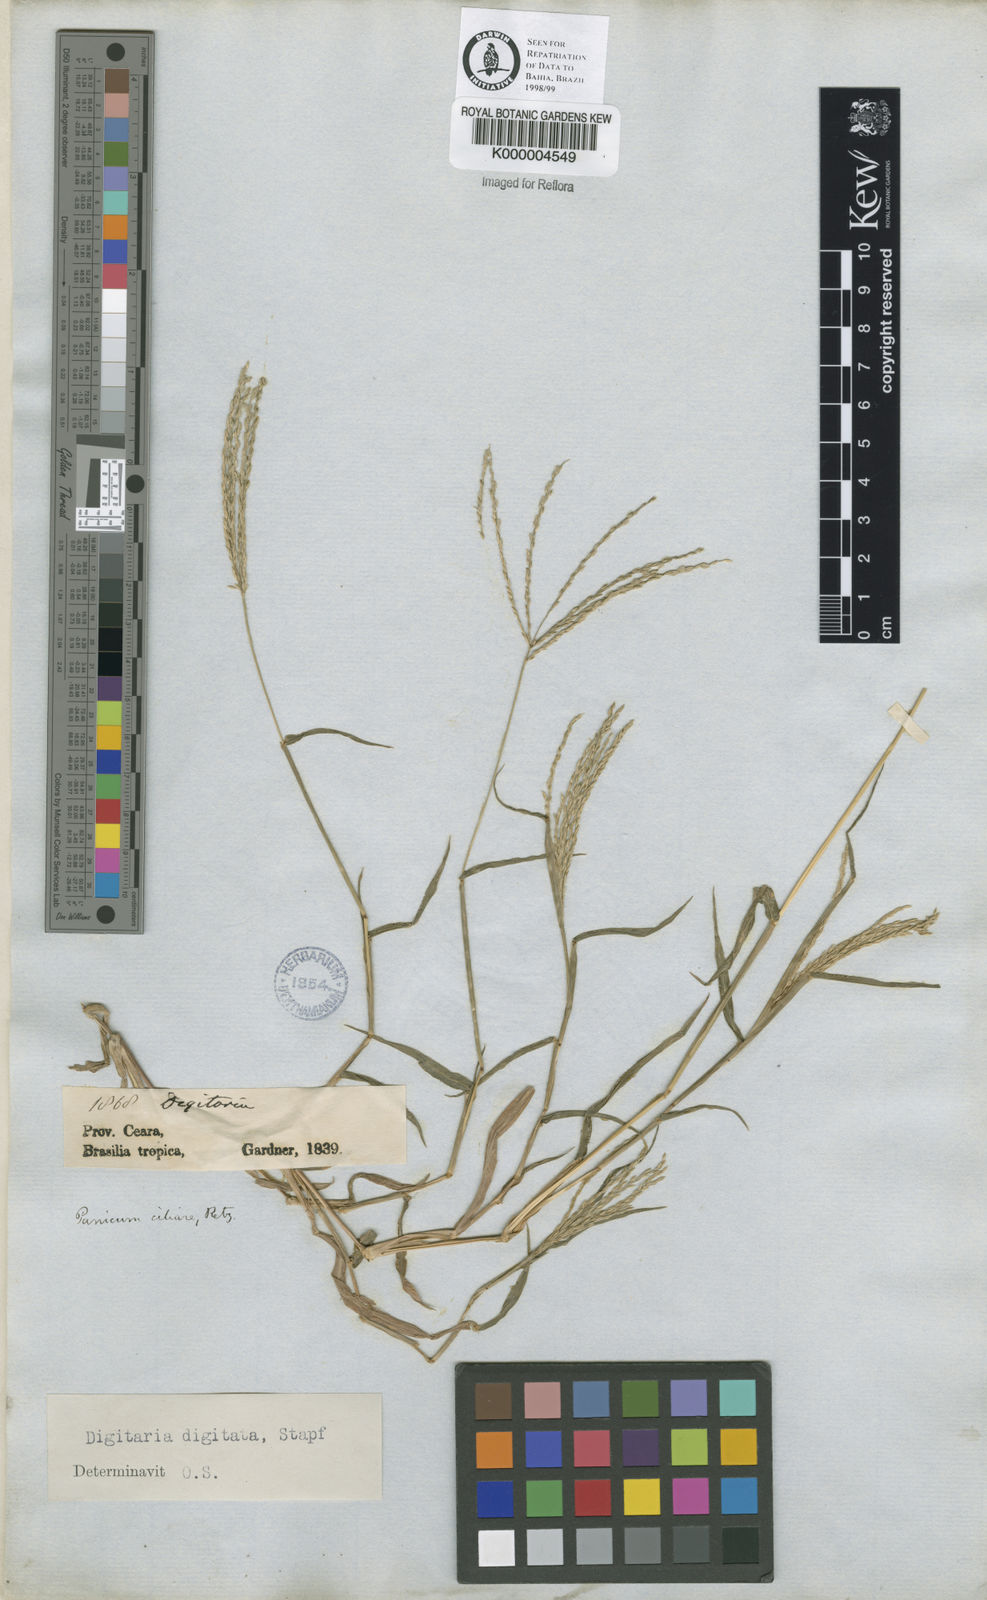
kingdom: Plantae
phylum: Tracheophyta
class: Liliopsida
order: Poales
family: Poaceae
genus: Digitaria
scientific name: Digitaria nuda
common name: Naked crabgrass
